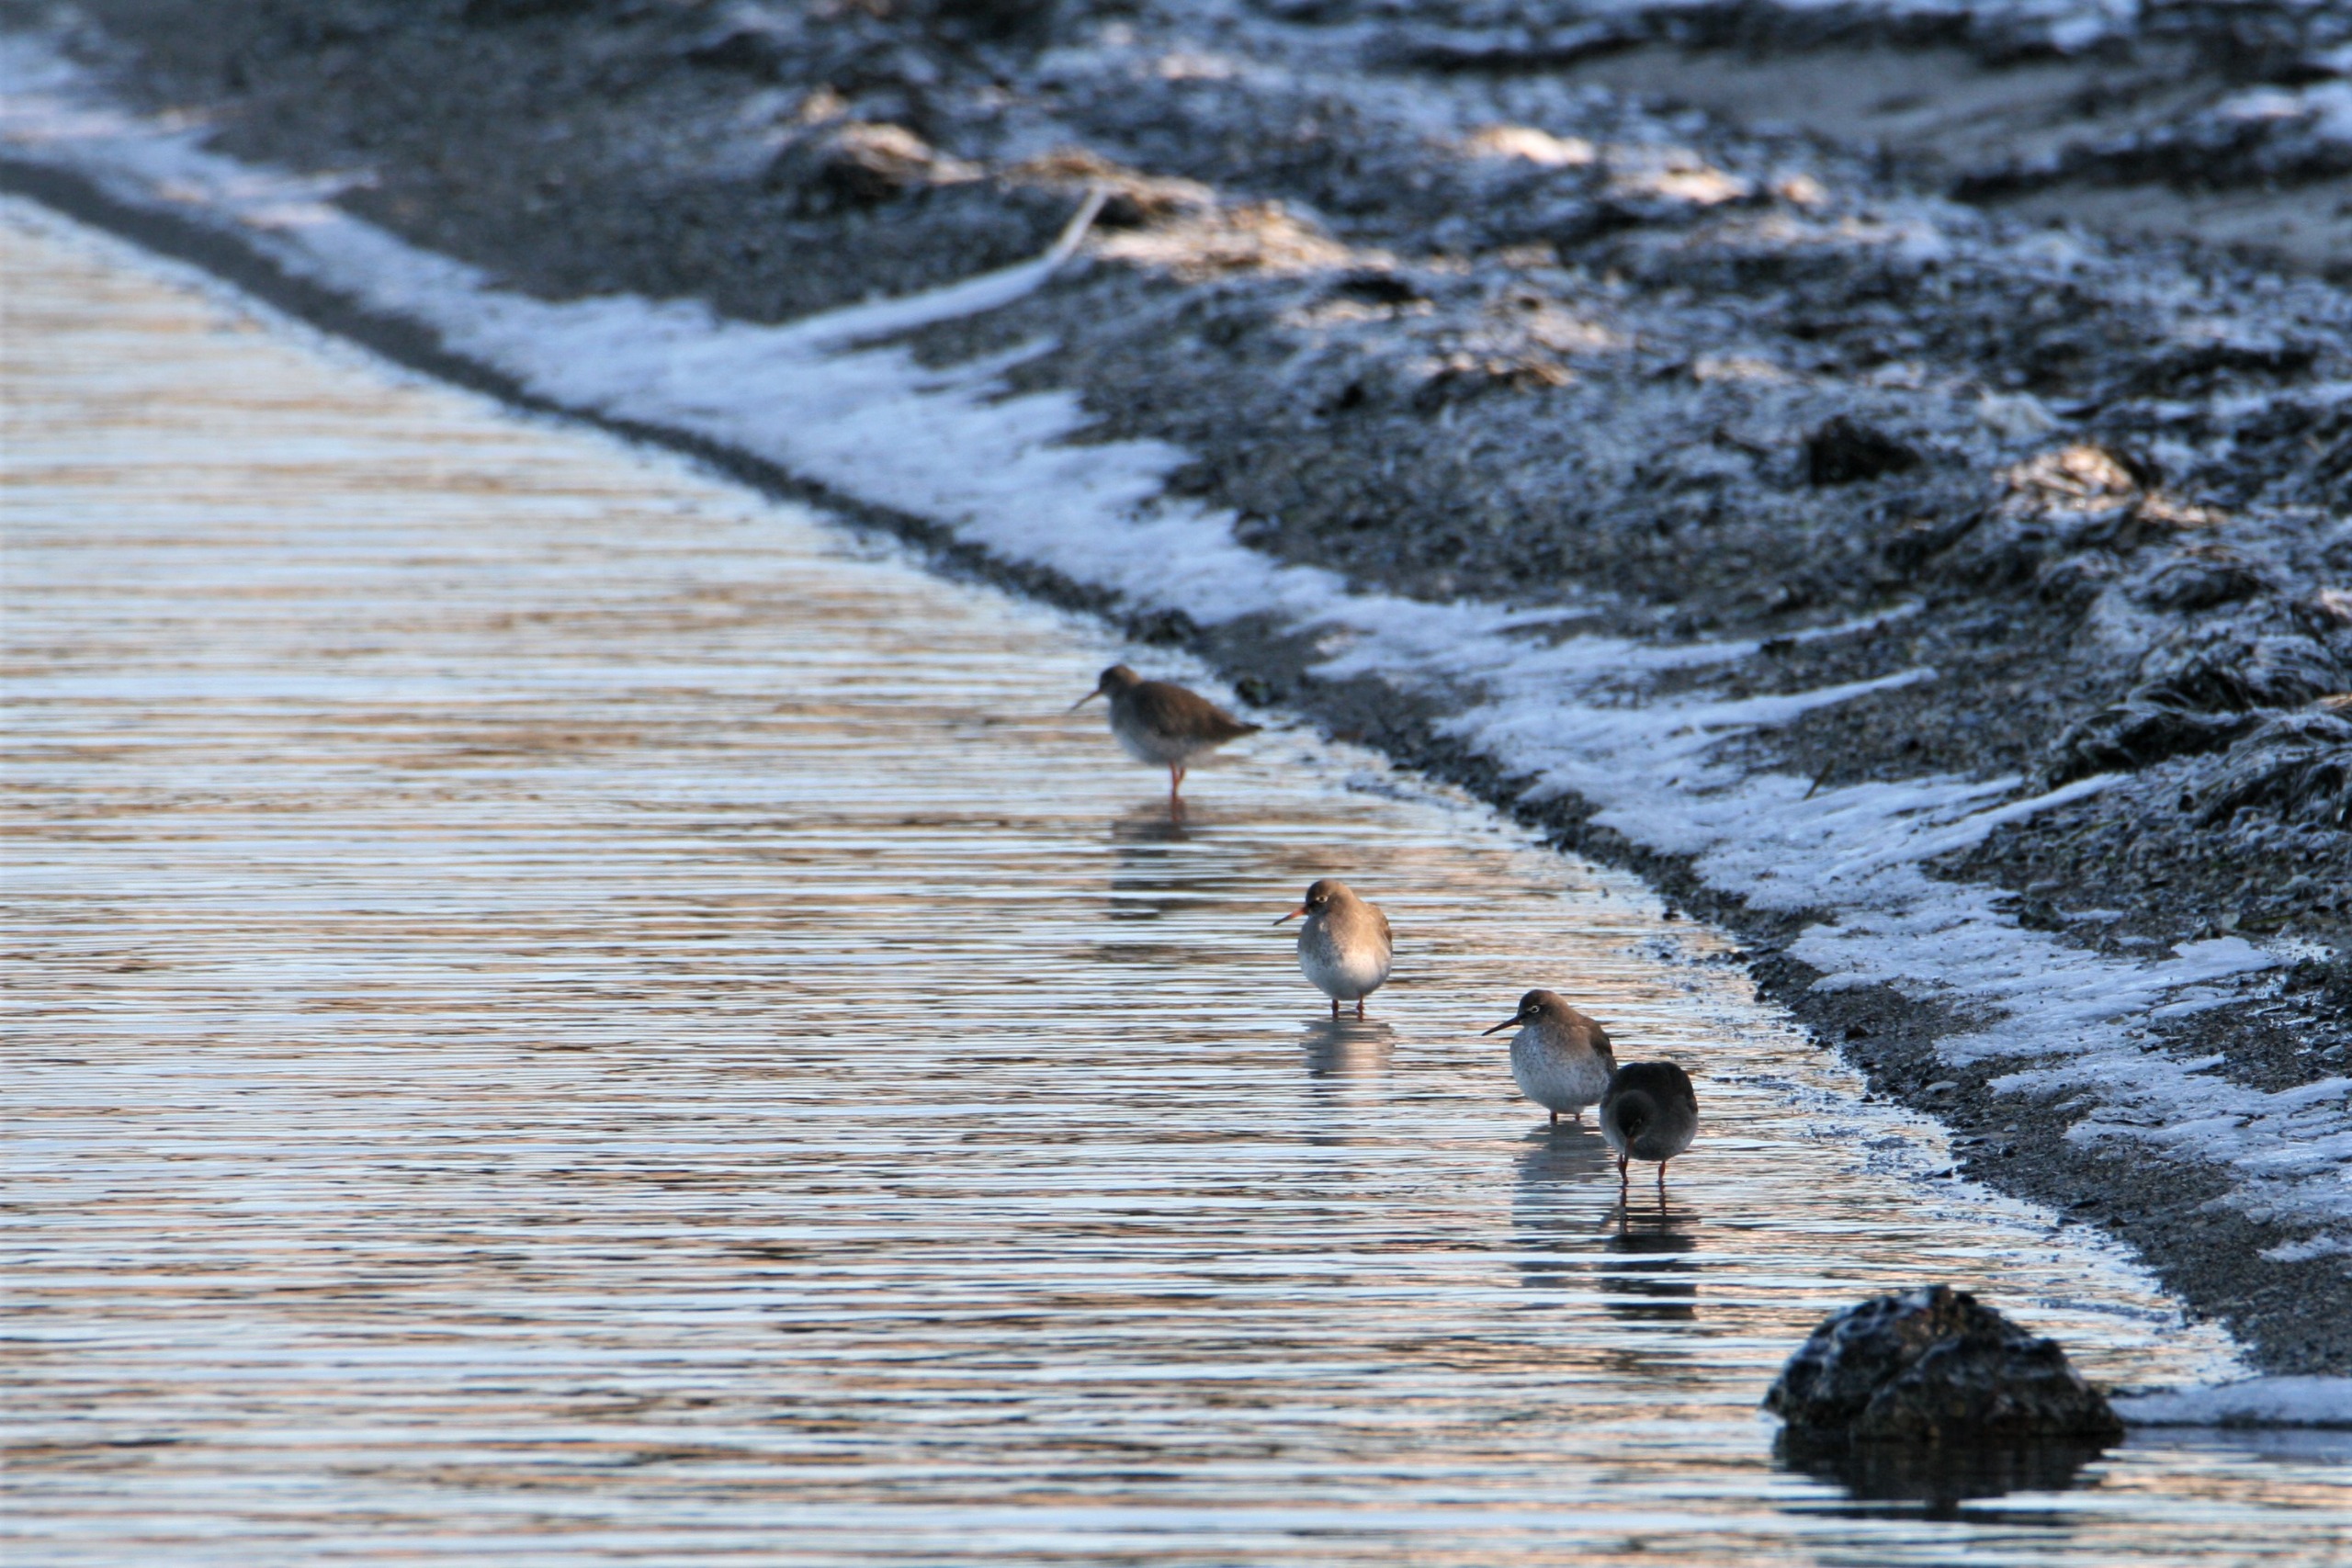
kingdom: Animalia
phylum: Chordata
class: Aves
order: Charadriiformes
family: Scolopacidae
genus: Tringa
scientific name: Tringa totanus
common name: Rødben
